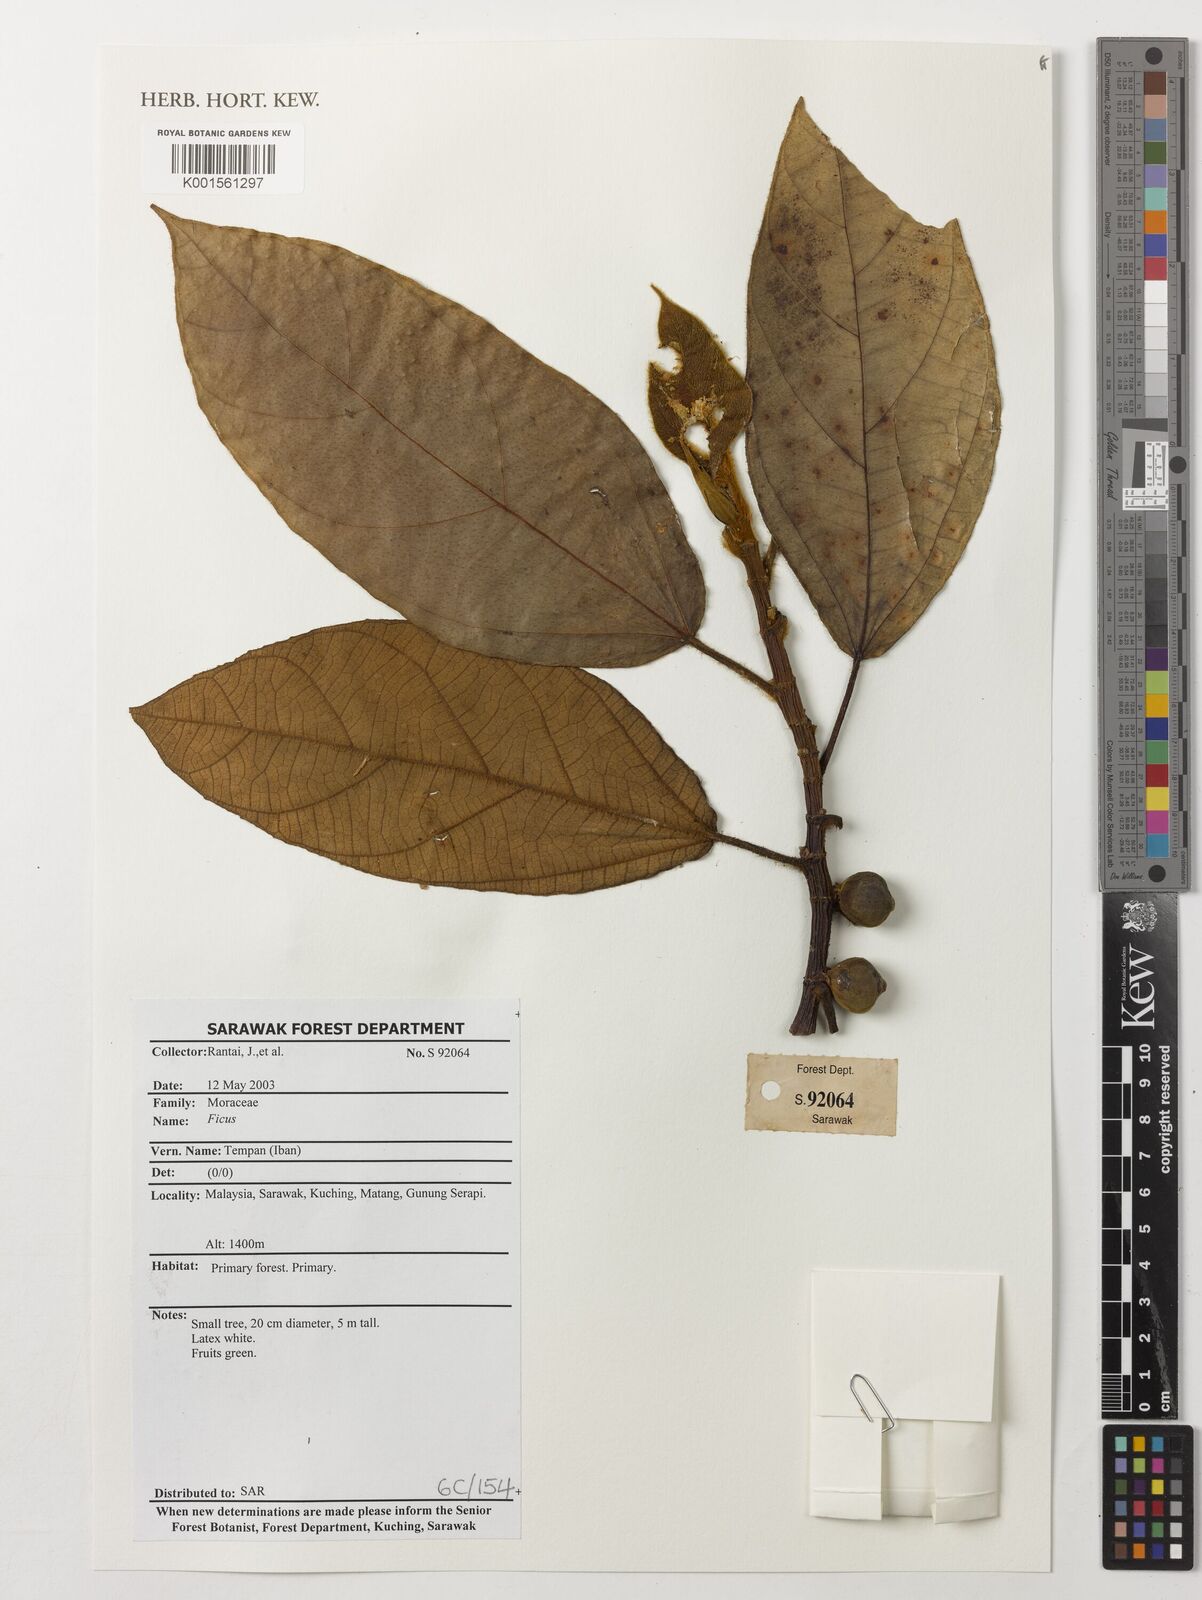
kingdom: Plantae
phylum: Tracheophyta
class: Magnoliopsida
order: Rosales
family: Moraceae
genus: Ficus
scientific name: Ficus
